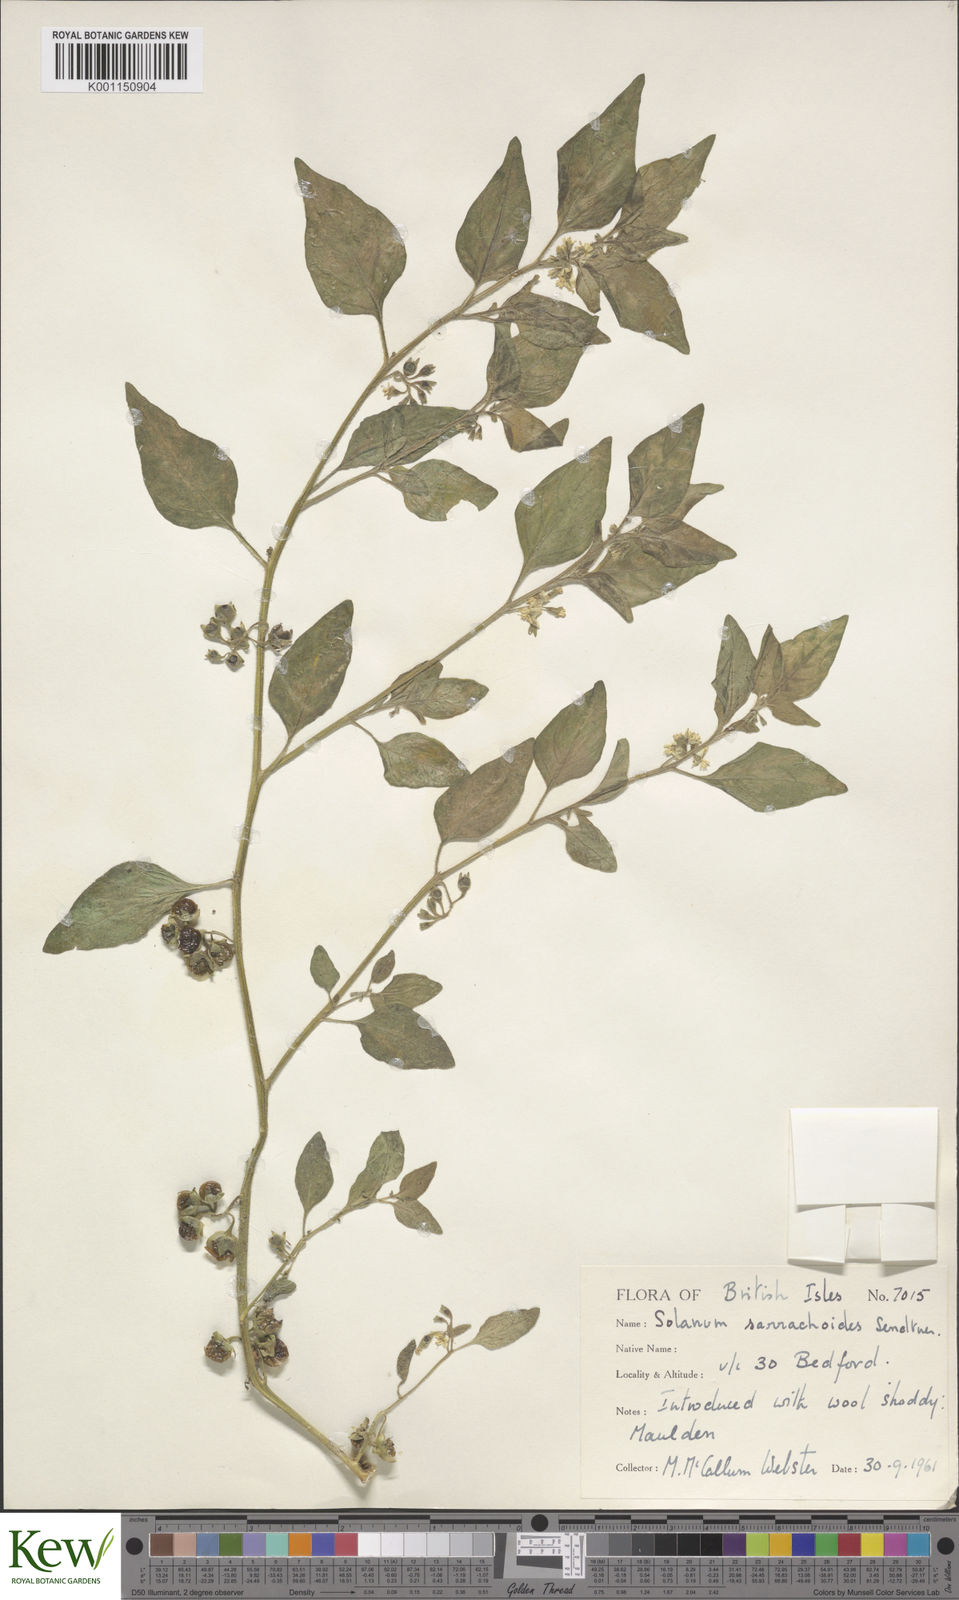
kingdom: Plantae
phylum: Tracheophyta
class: Magnoliopsida
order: Solanales
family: Solanaceae
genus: Solanum
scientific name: Solanum nitidibaccatum
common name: Hairy nightshade
